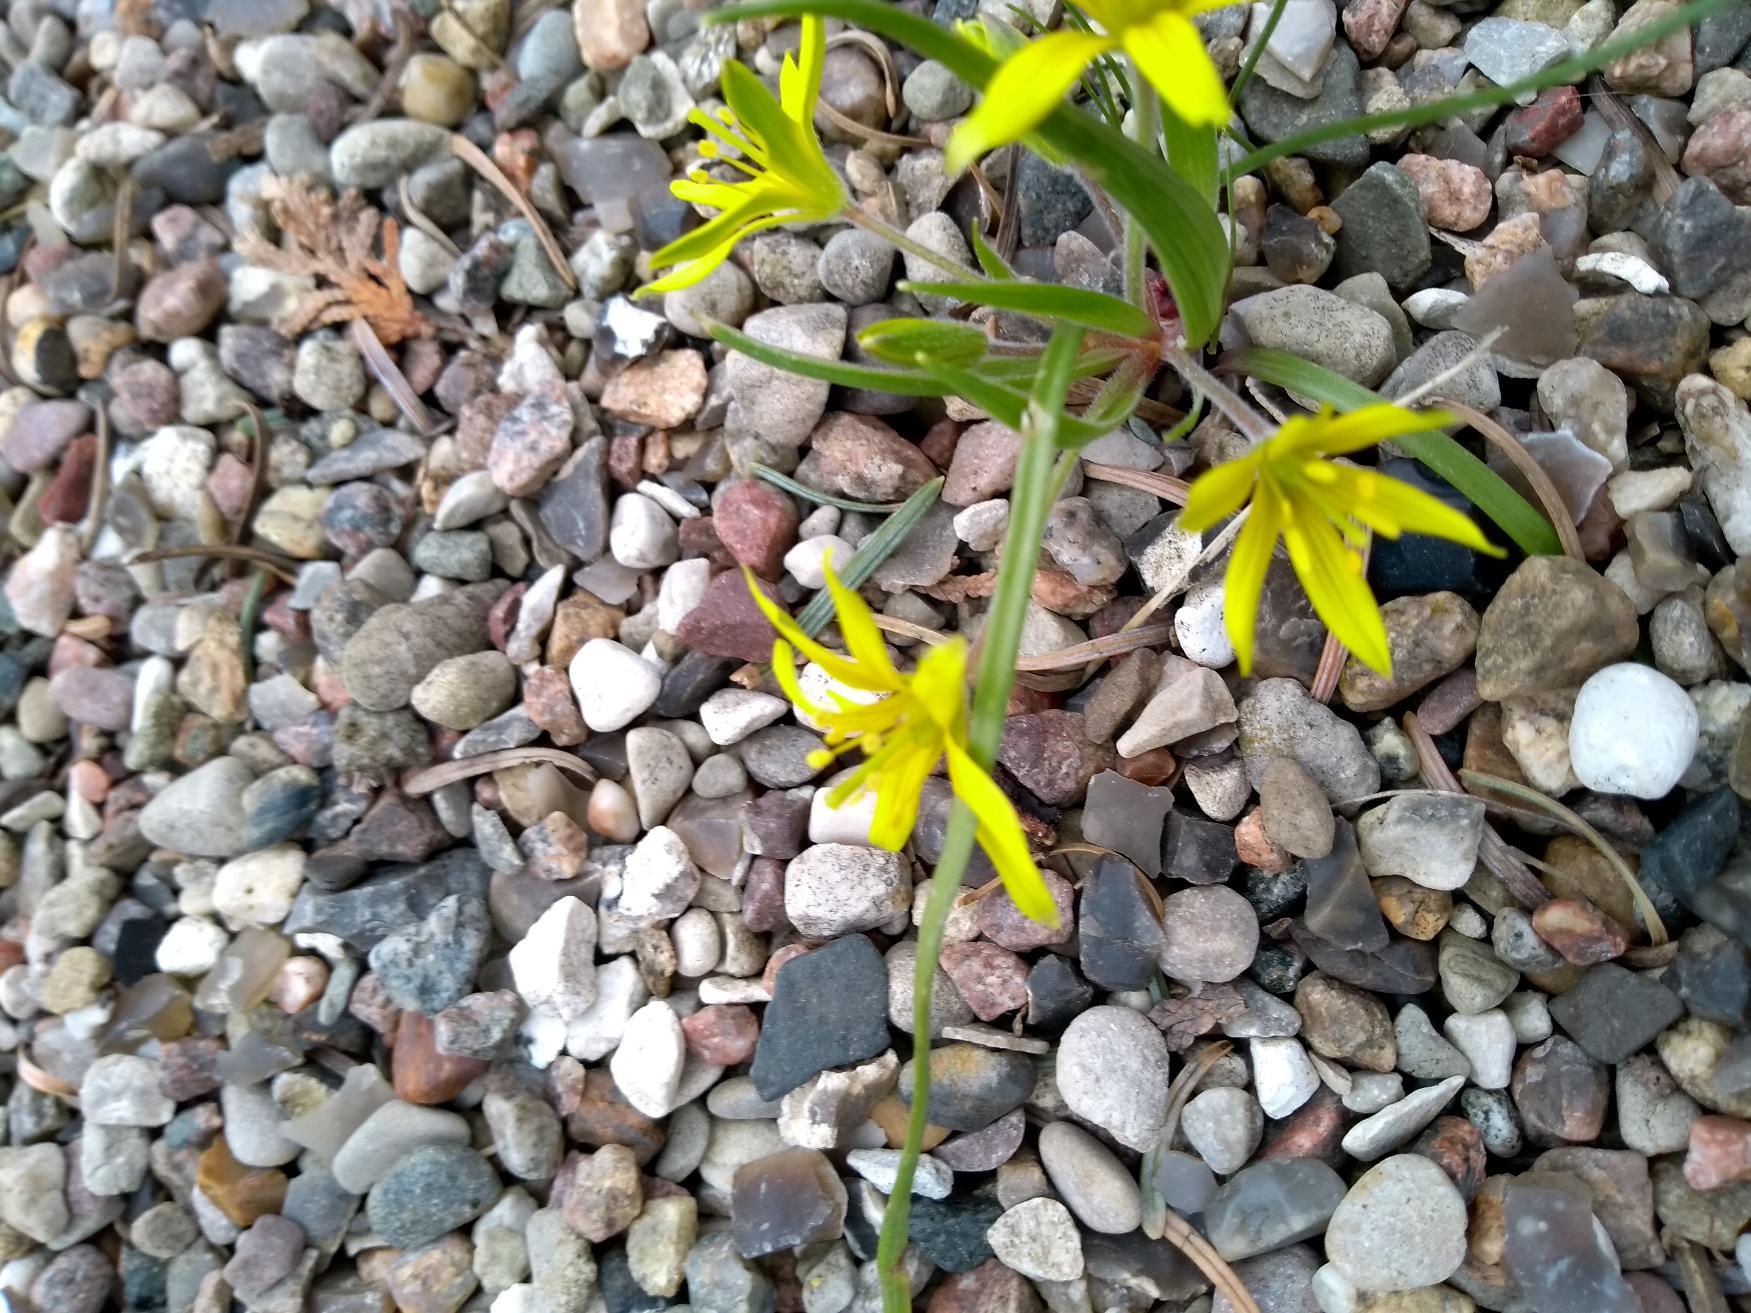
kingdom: Plantae
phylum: Tracheophyta
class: Liliopsida
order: Liliales
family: Liliaceae
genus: Gagea
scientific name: Gagea villosa
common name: Ager-guldstjerne
